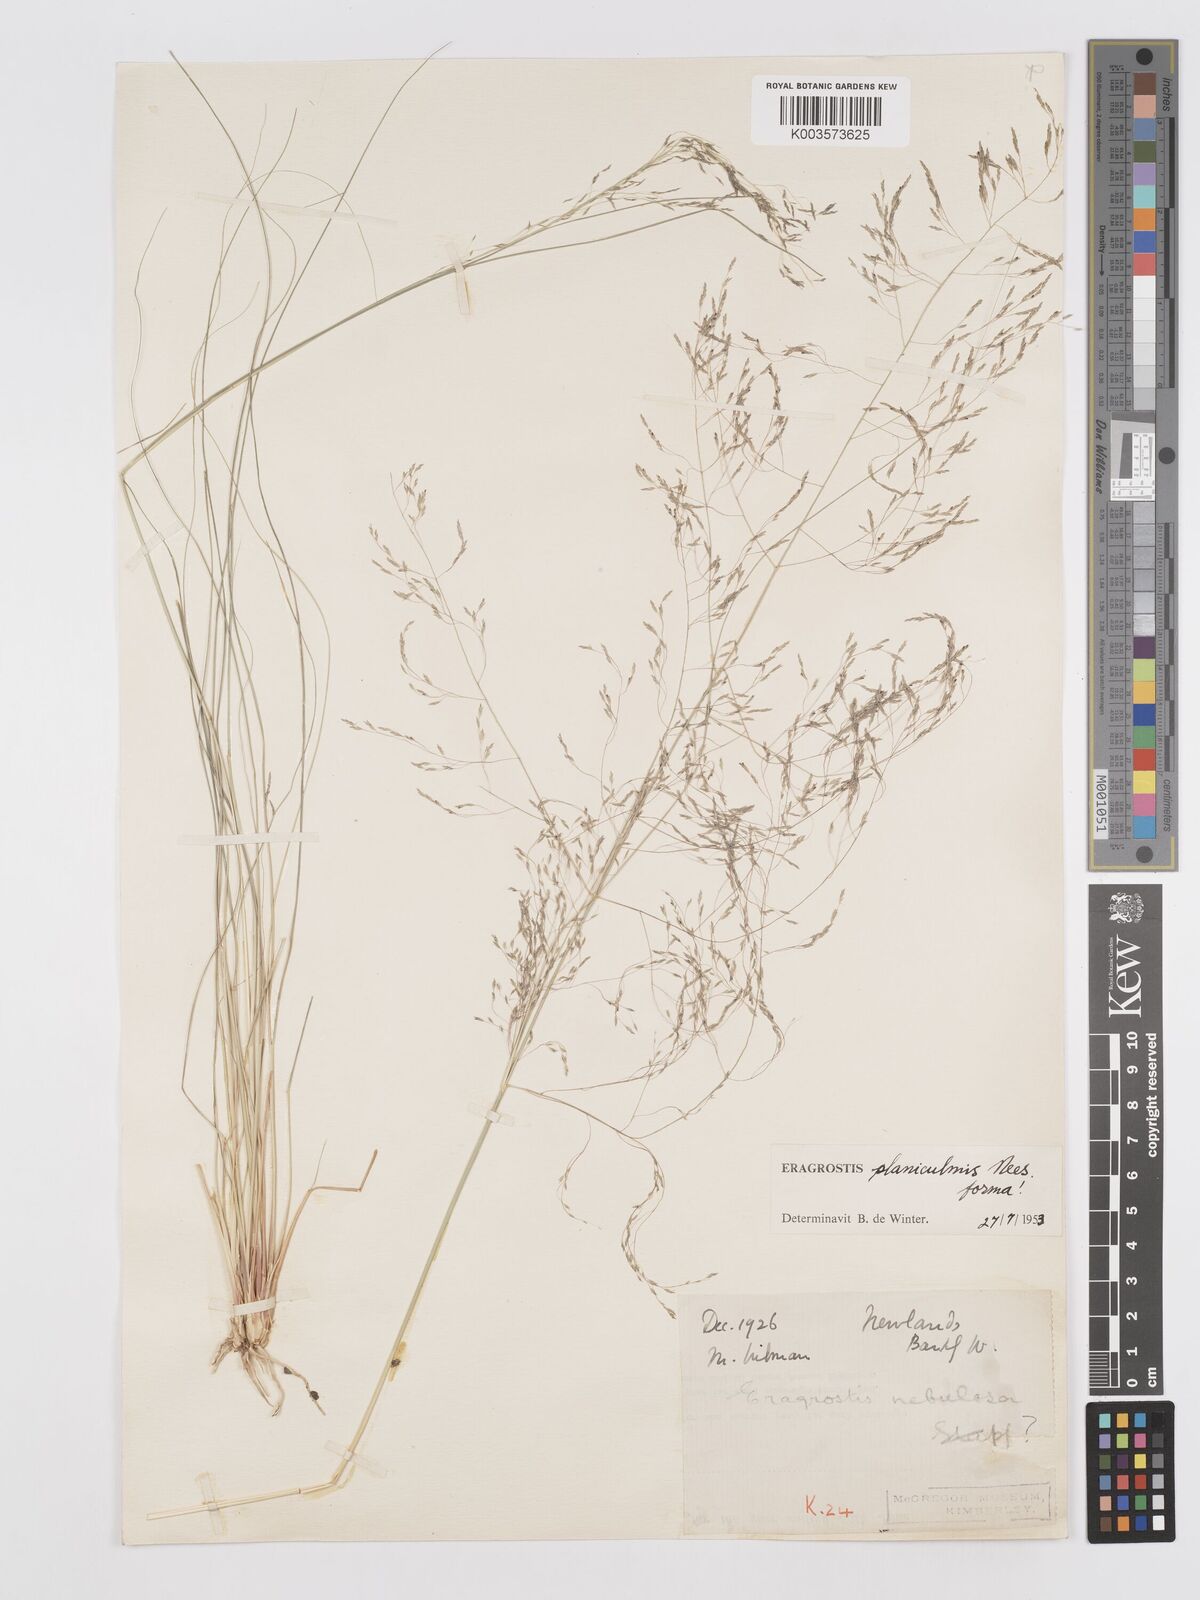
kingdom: Plantae
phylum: Tracheophyta
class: Liliopsida
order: Poales
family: Poaceae
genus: Eragrostis
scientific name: Eragrostis planiculmis
